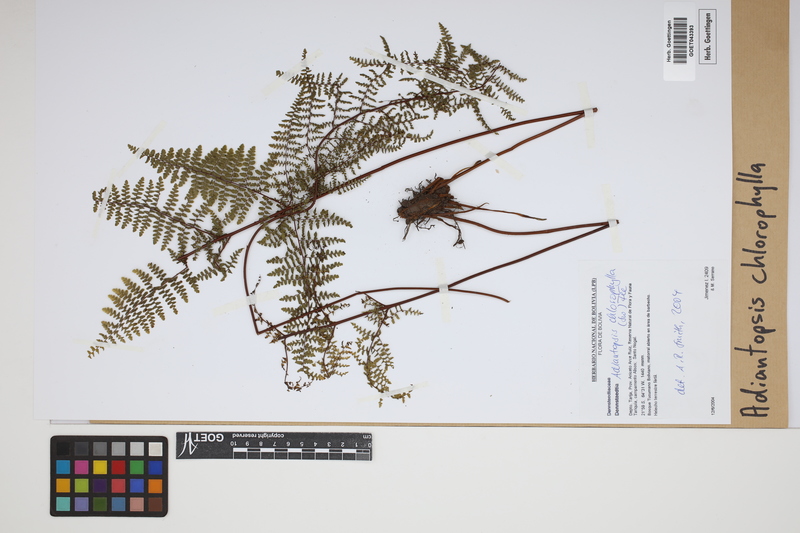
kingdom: Plantae
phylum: Tracheophyta
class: Polypodiopsida
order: Polypodiales
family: Pteridaceae
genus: Adiantopsis
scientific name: Adiantopsis chlorophylla
